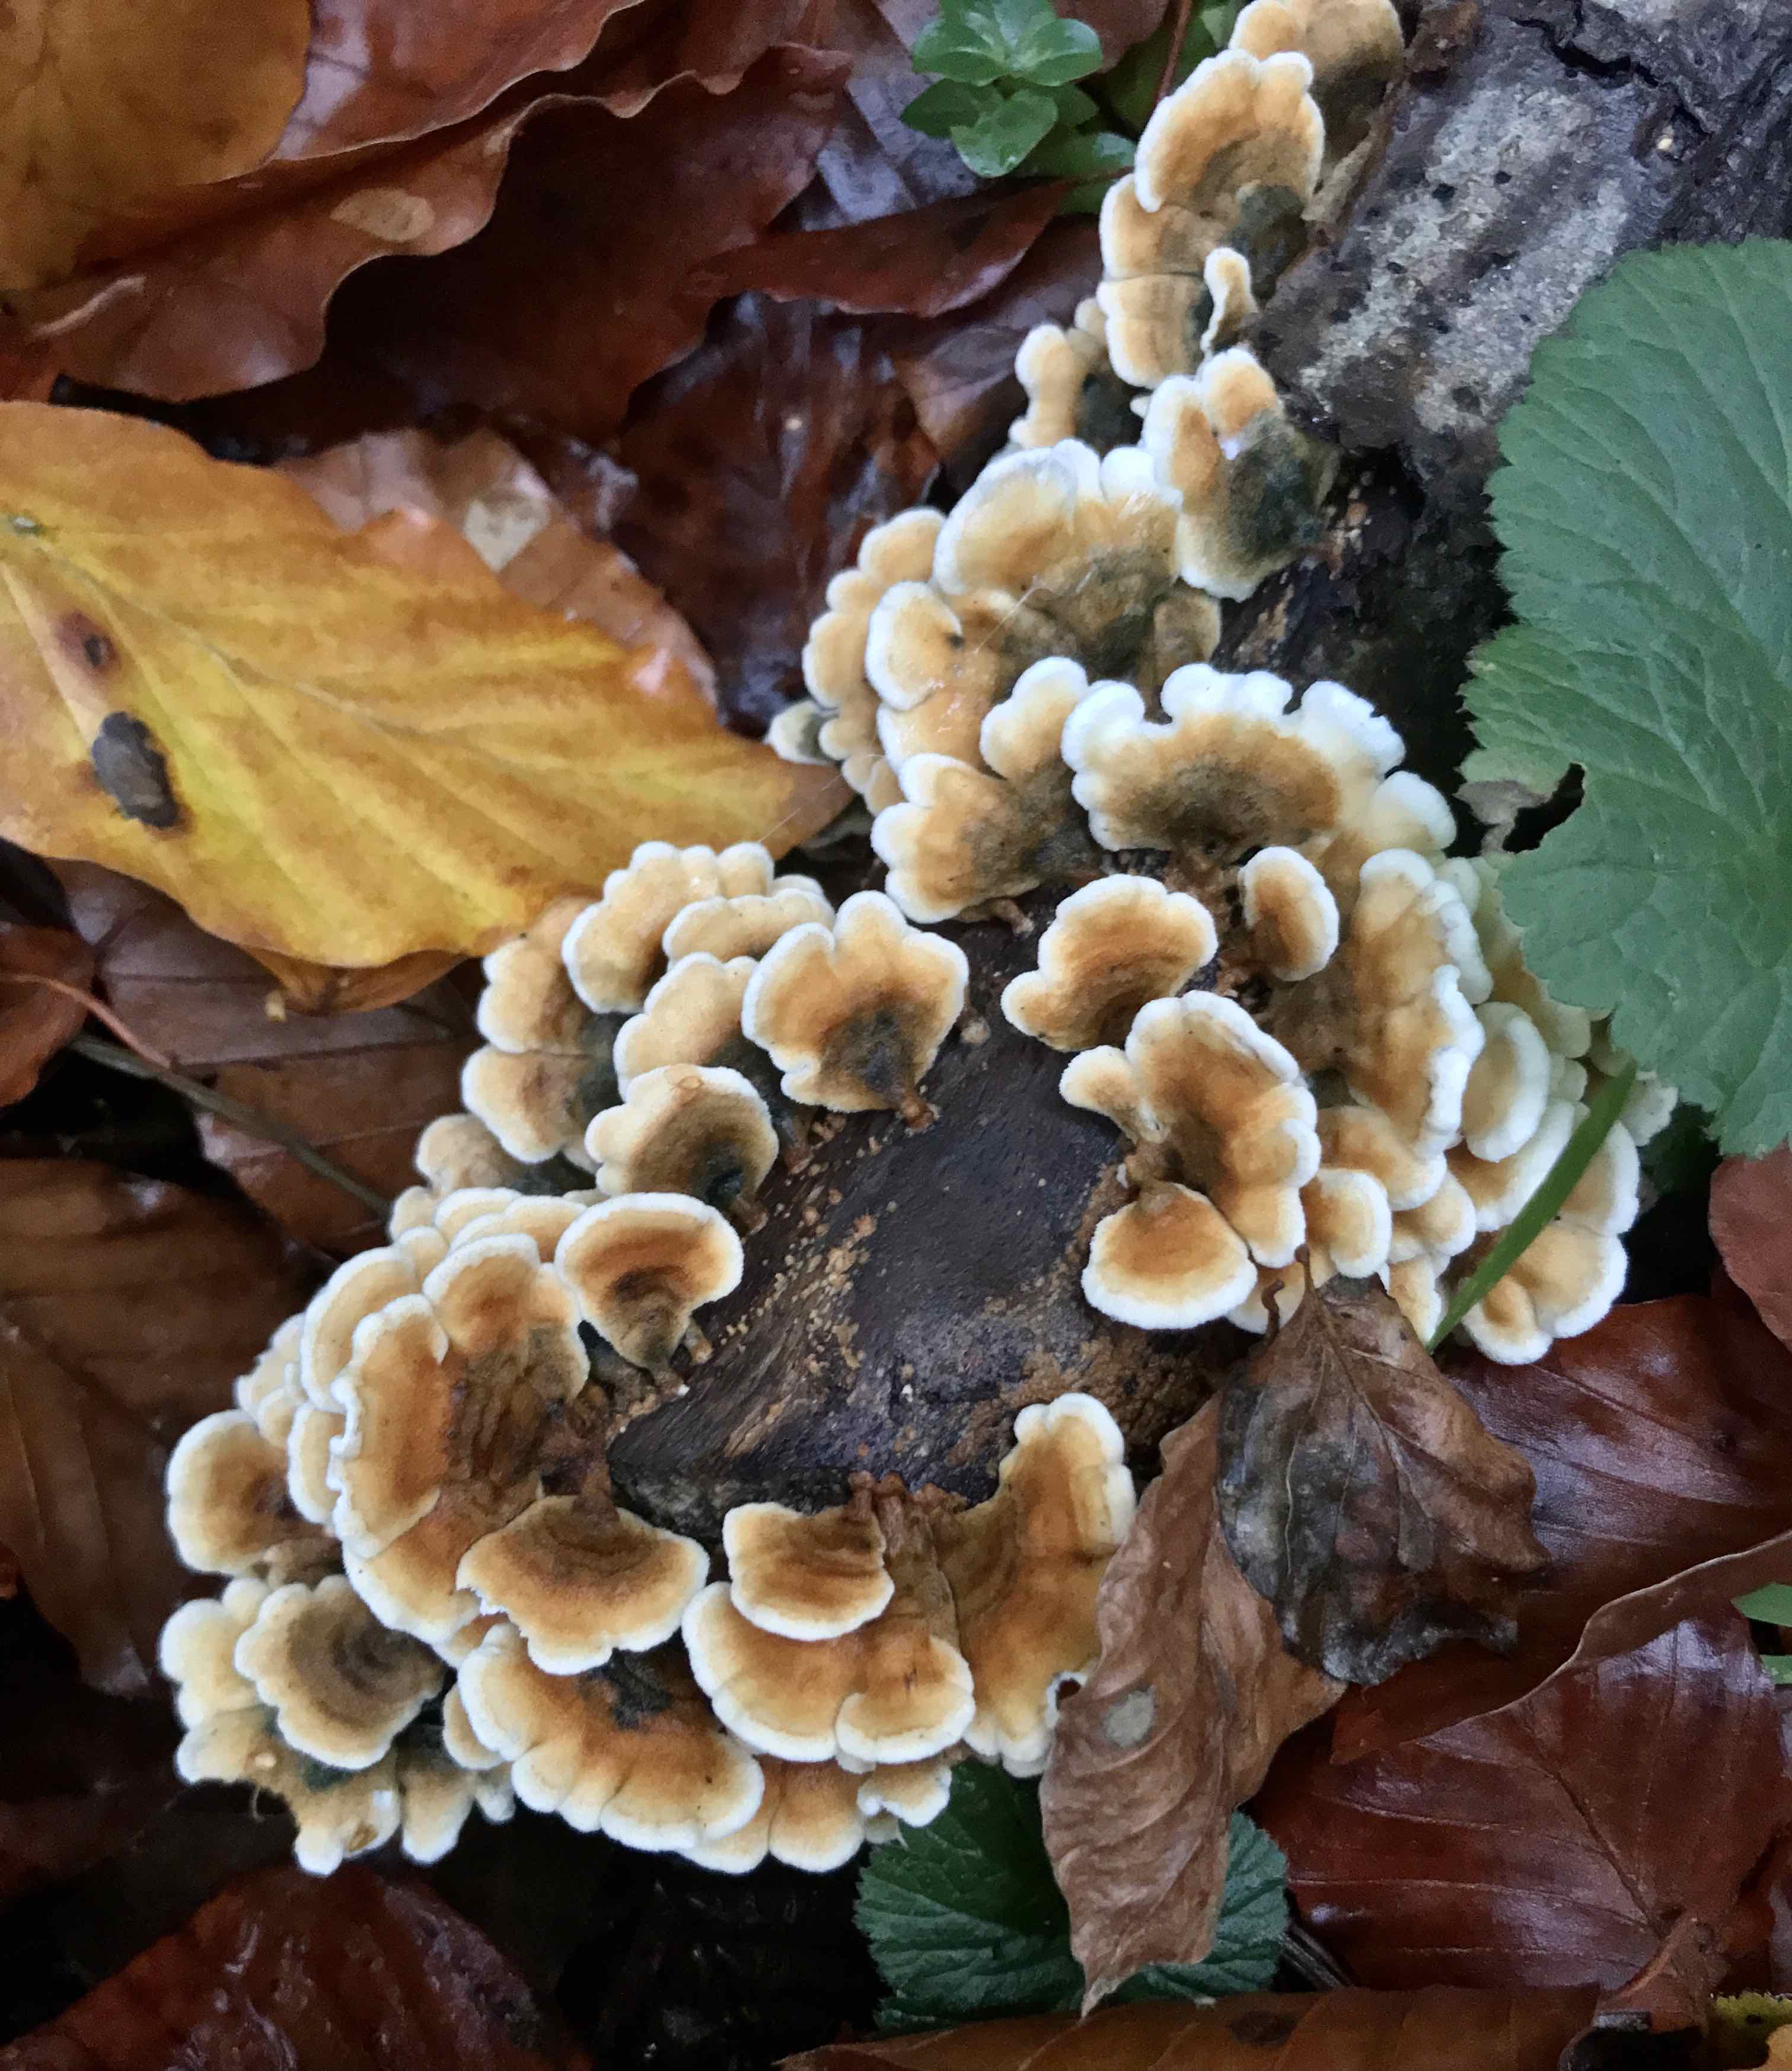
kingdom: Fungi
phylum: Basidiomycota
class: Agaricomycetes
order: Amylocorticiales
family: Amylocorticiaceae
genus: Plicaturopsis
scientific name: Plicaturopsis crispa
